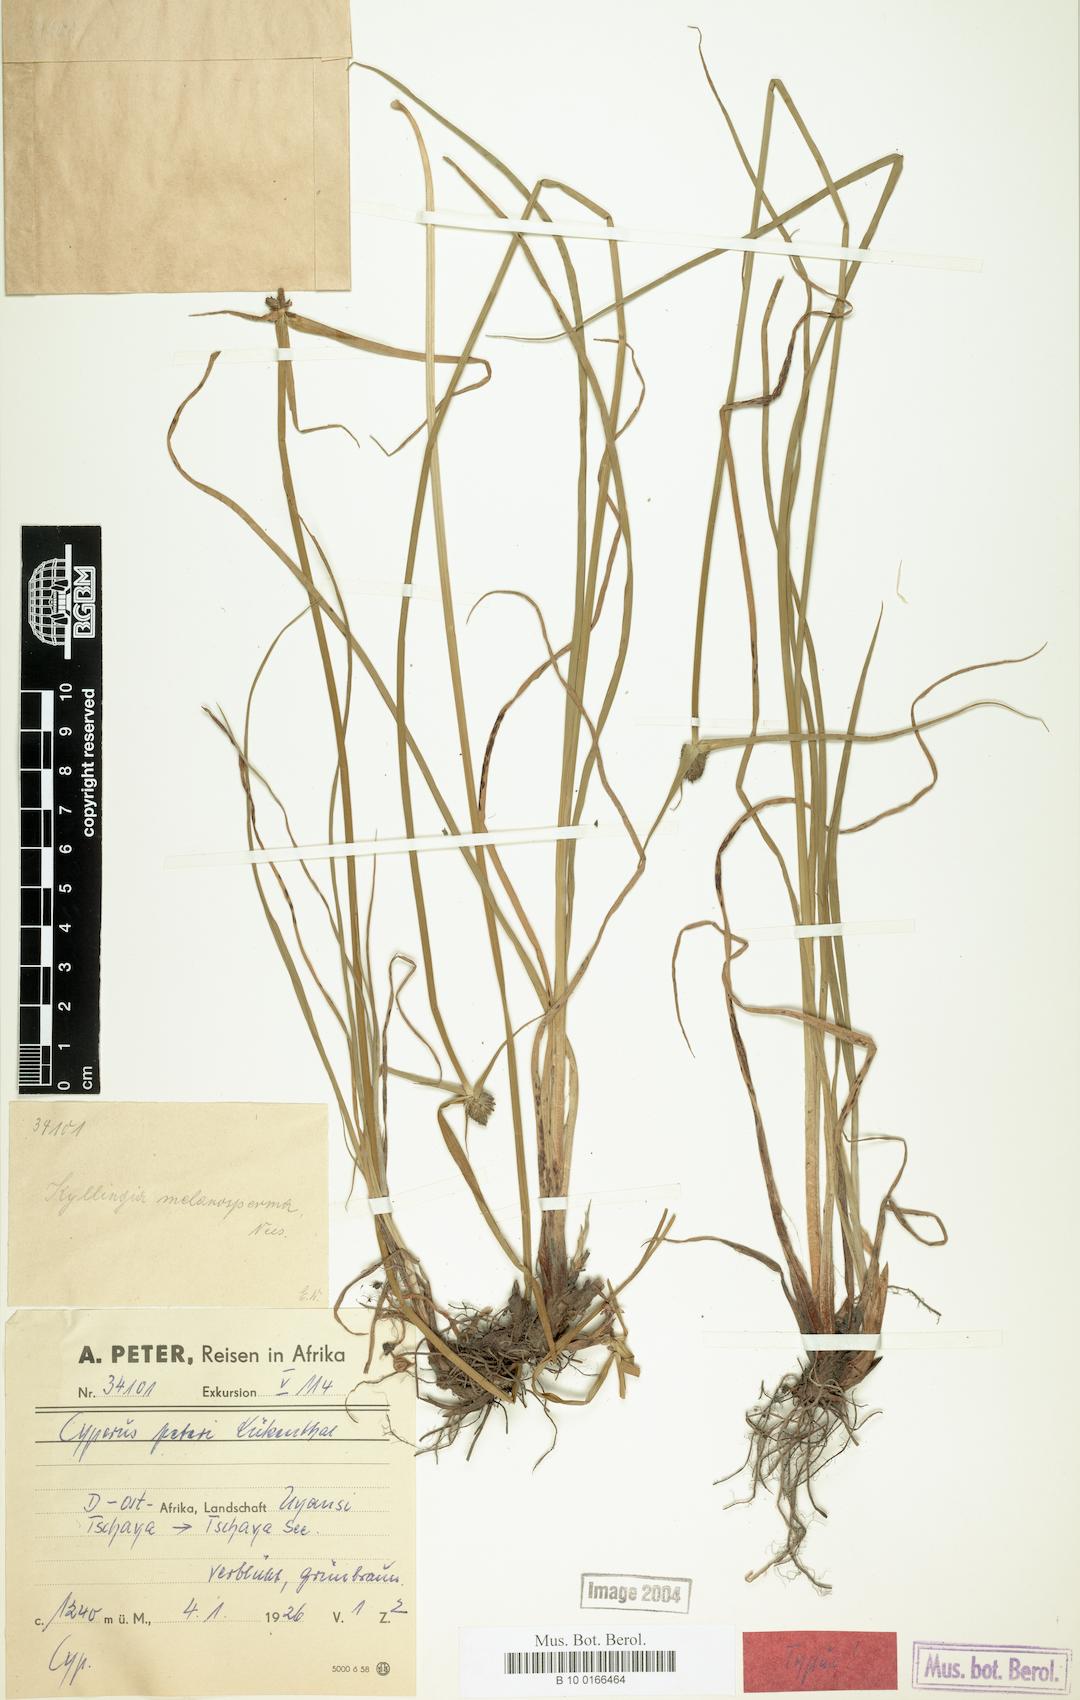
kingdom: Plantae
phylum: Tracheophyta
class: Liliopsida
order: Poales
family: Cyperaceae
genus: Cyperus
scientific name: Cyperus peteri
